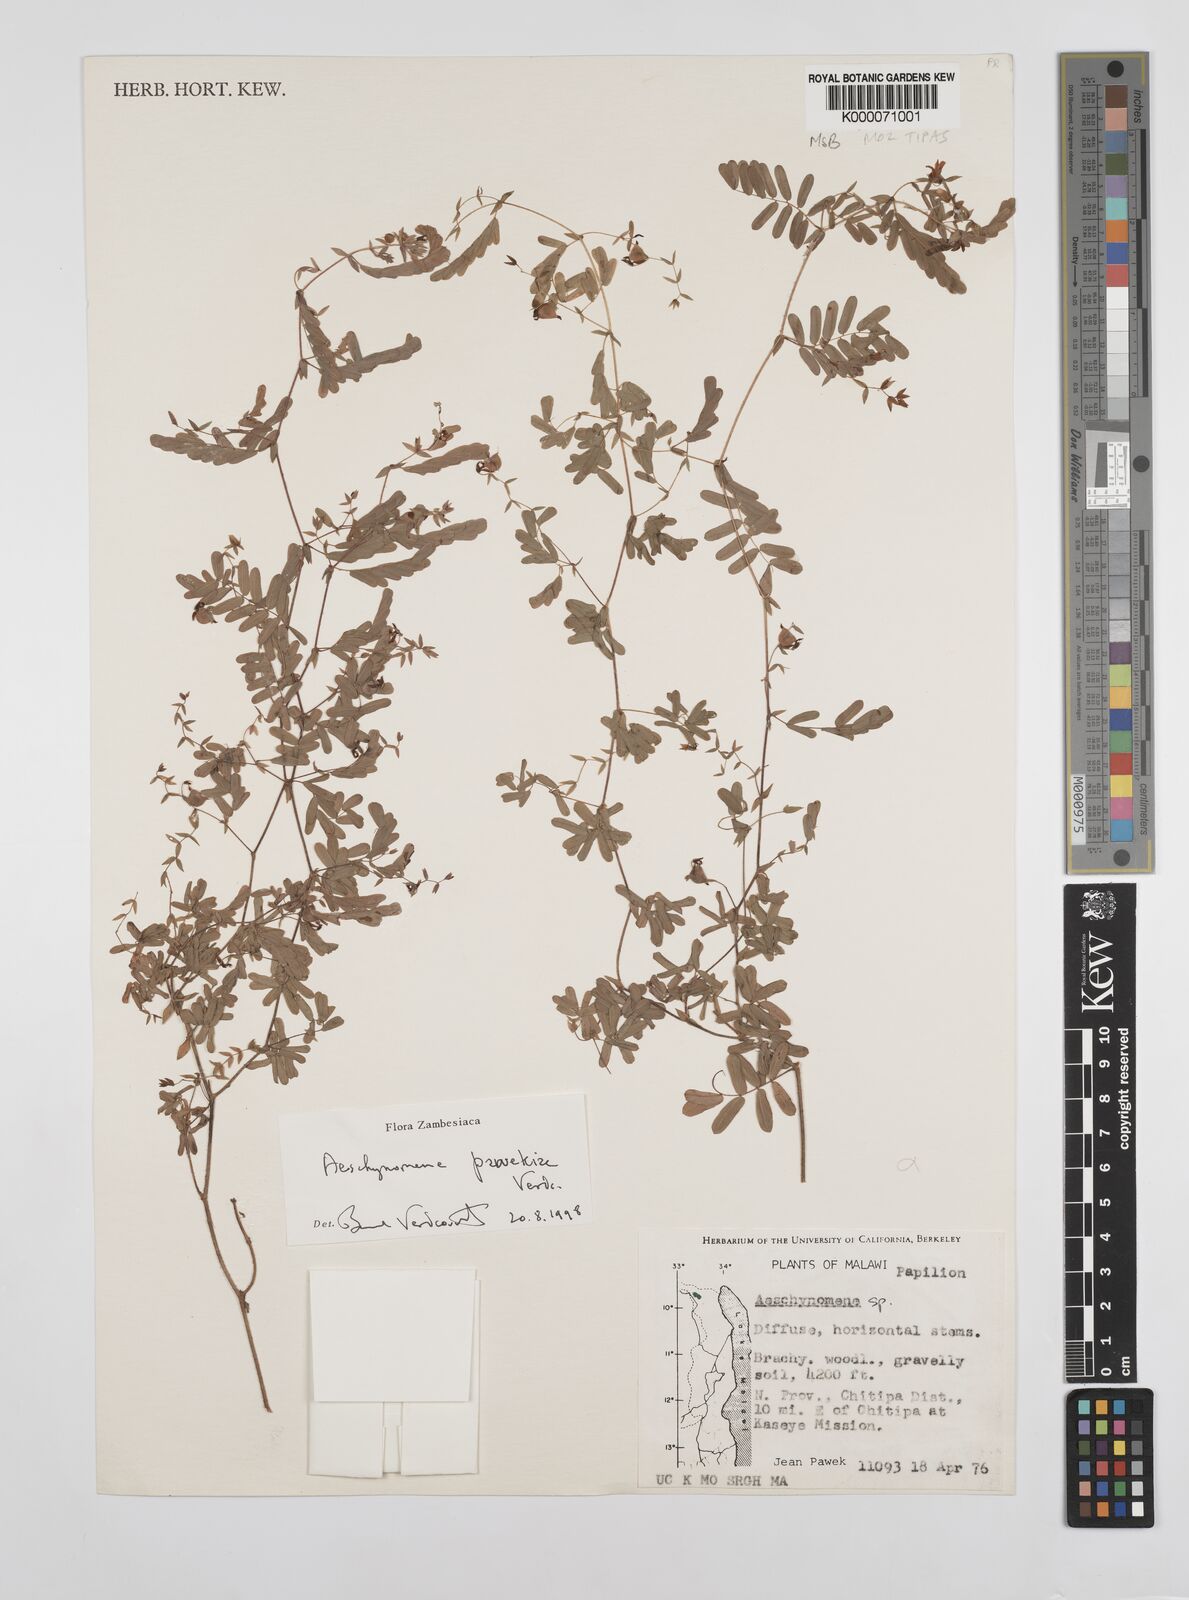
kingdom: Plantae
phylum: Tracheophyta
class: Magnoliopsida
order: Fabales
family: Fabaceae
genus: Aeschynomene
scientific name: Aeschynomene pawekiae
